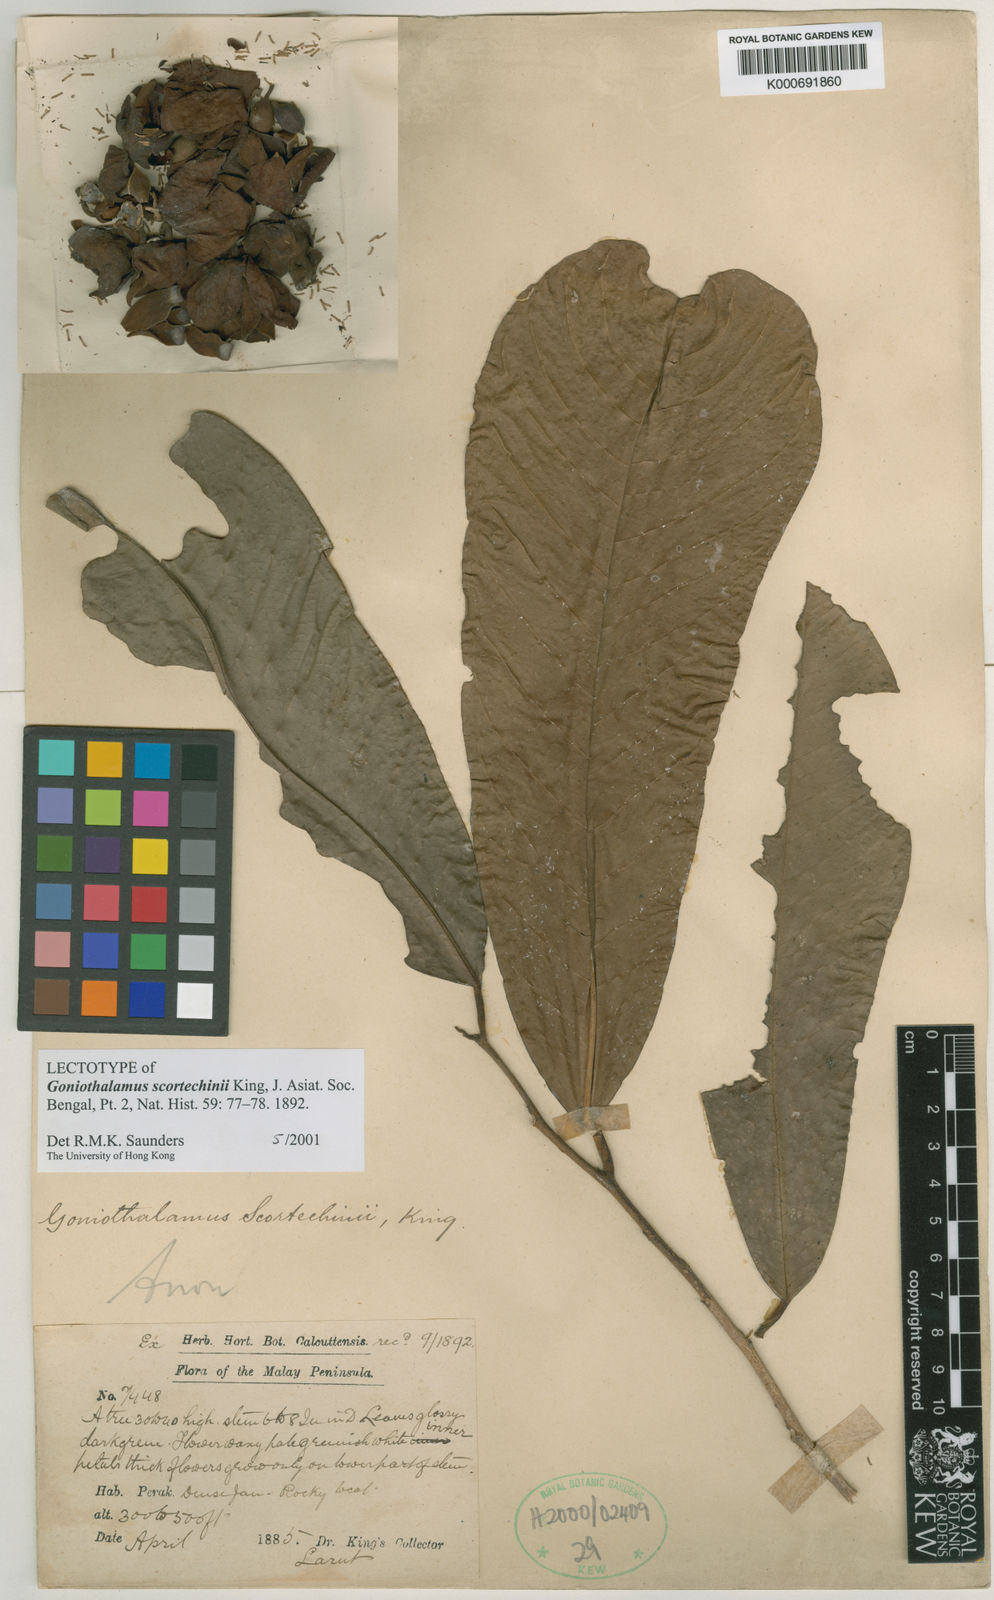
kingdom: Plantae
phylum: Tracheophyta
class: Magnoliopsida
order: Magnoliales
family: Annonaceae
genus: Goniothalamus
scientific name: Goniothalamus scortechinii
